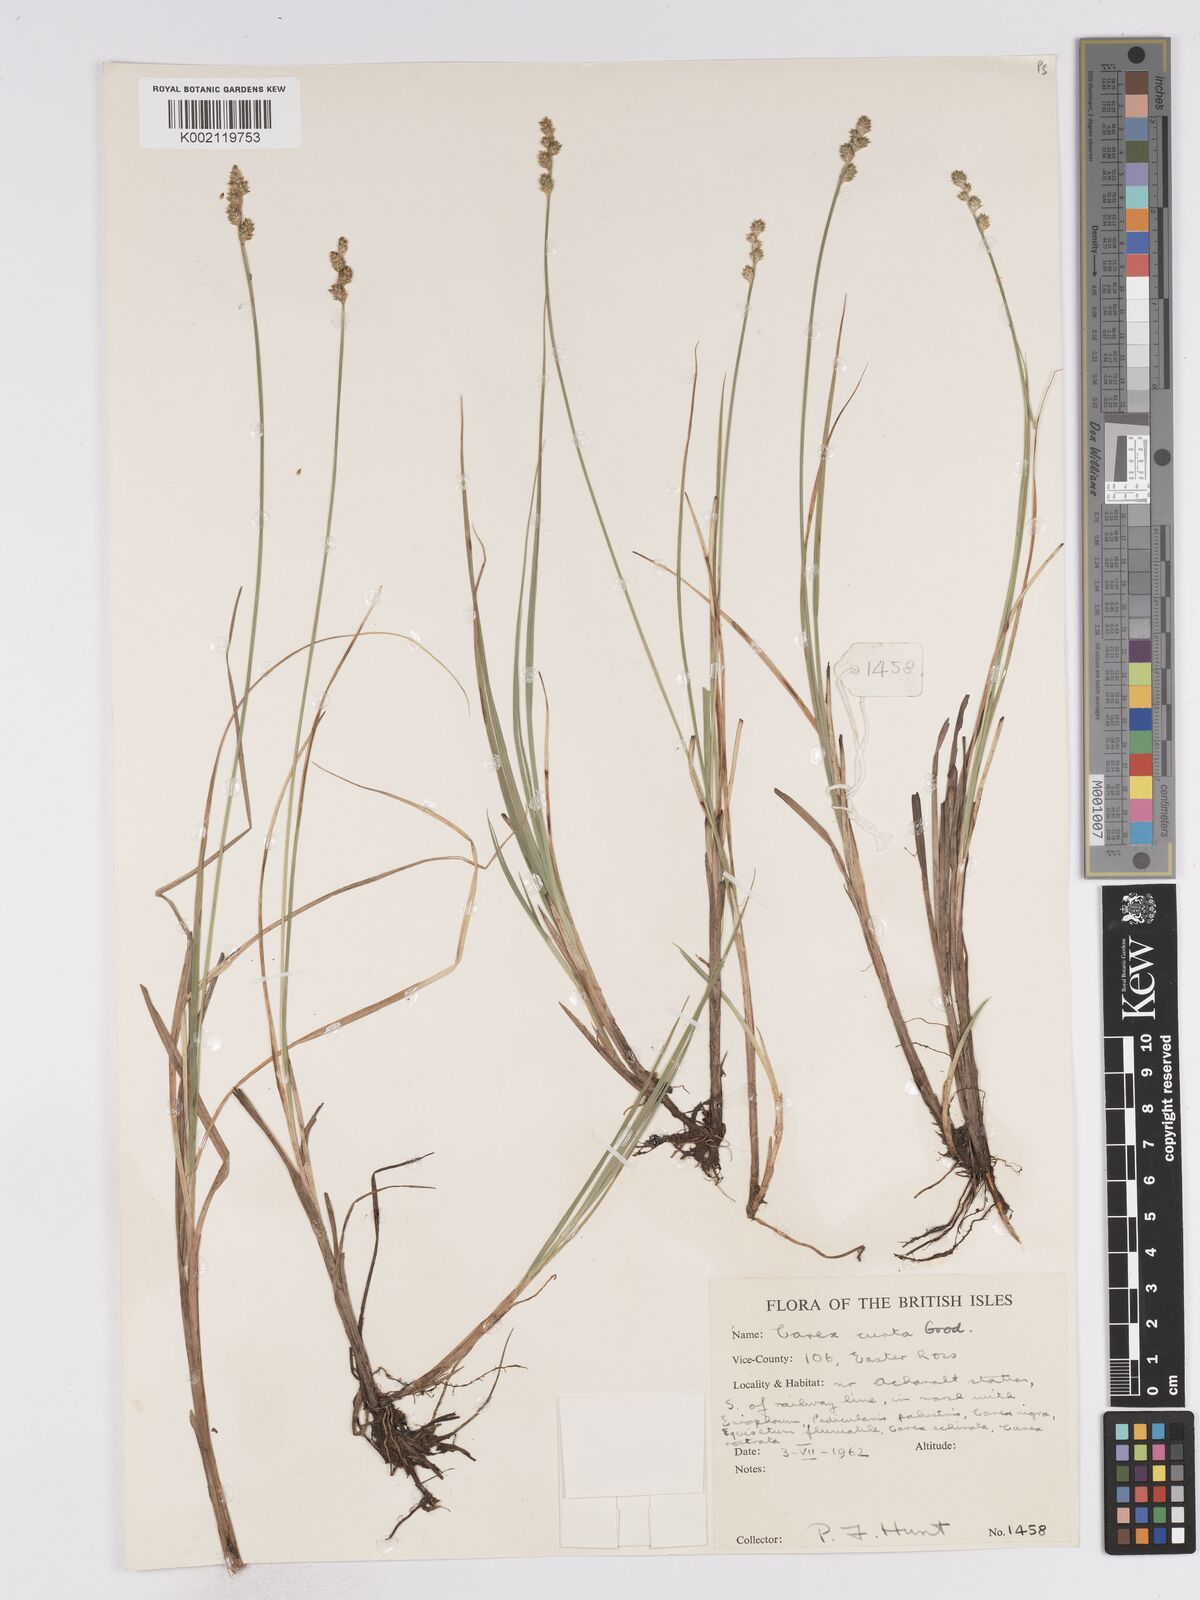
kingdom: Plantae
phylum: Tracheophyta
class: Liliopsida
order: Poales
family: Cyperaceae
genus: Carex
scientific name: Carex curta
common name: White sedge
